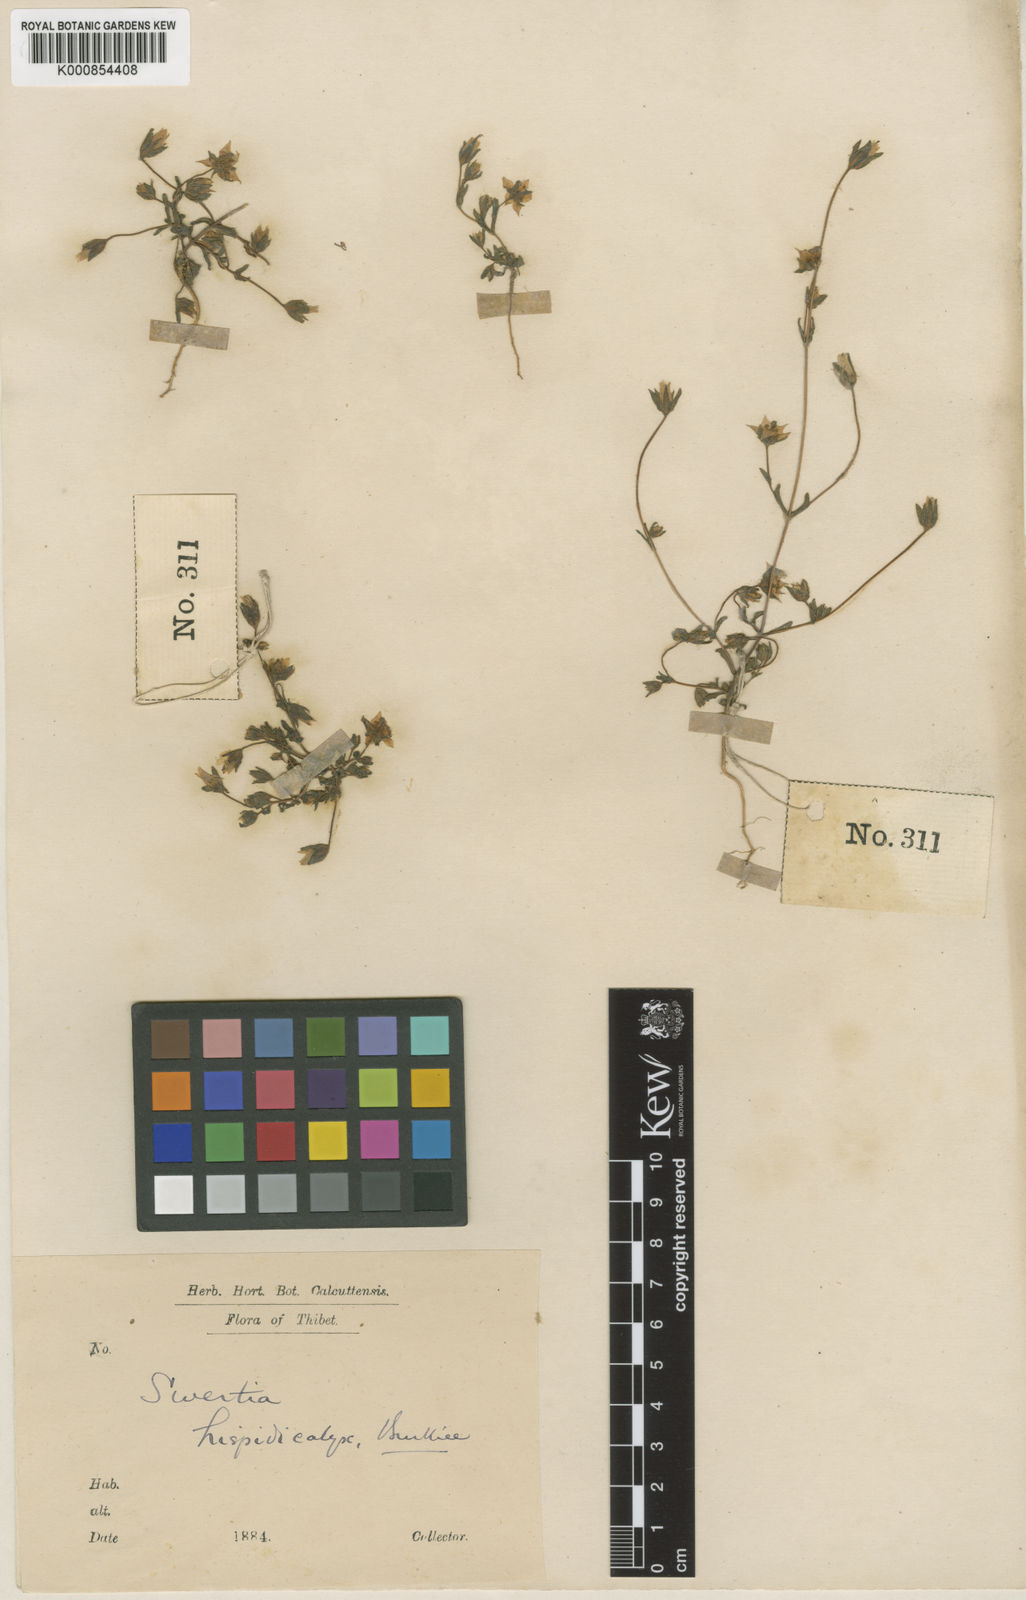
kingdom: Plantae
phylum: Tracheophyta
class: Magnoliopsida
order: Gentianales
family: Gentianaceae
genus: Swertia
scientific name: Swertia hispidicalyx
